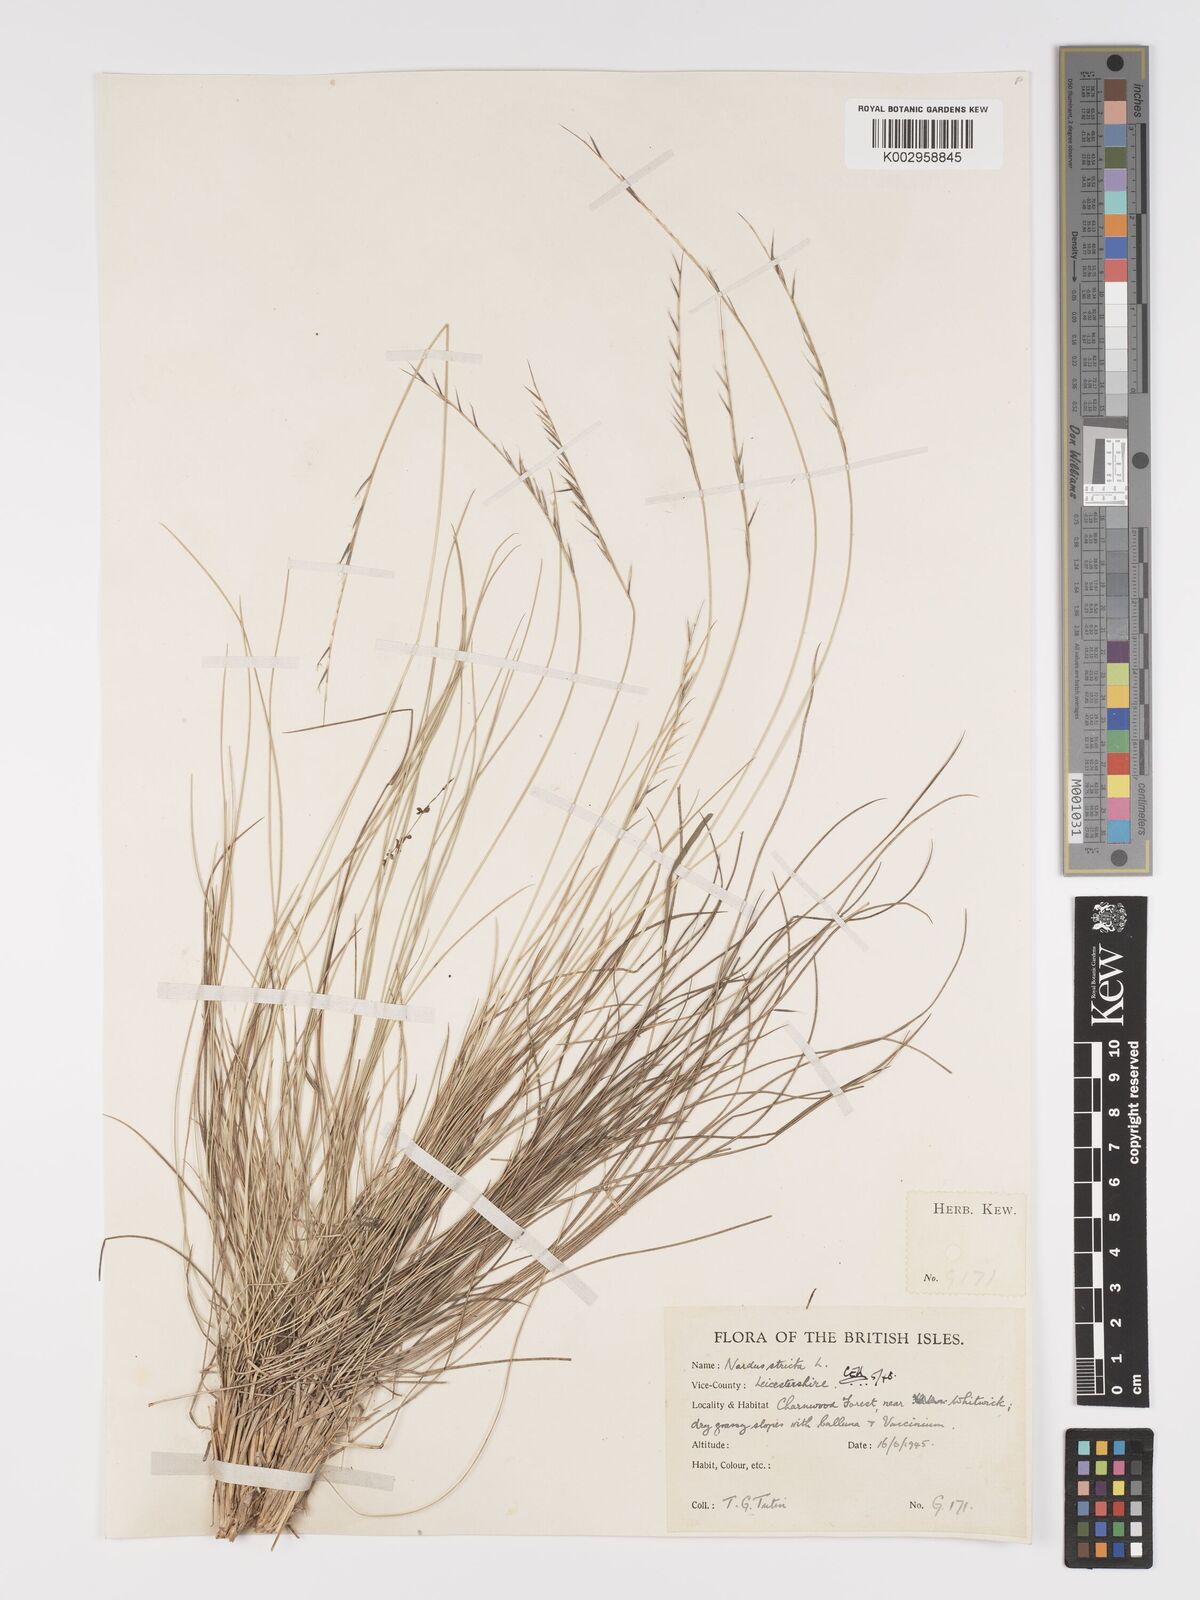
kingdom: Plantae
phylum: Tracheophyta
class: Liliopsida
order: Poales
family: Poaceae
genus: Nardus
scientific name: Nardus stricta
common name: Mat-grass
